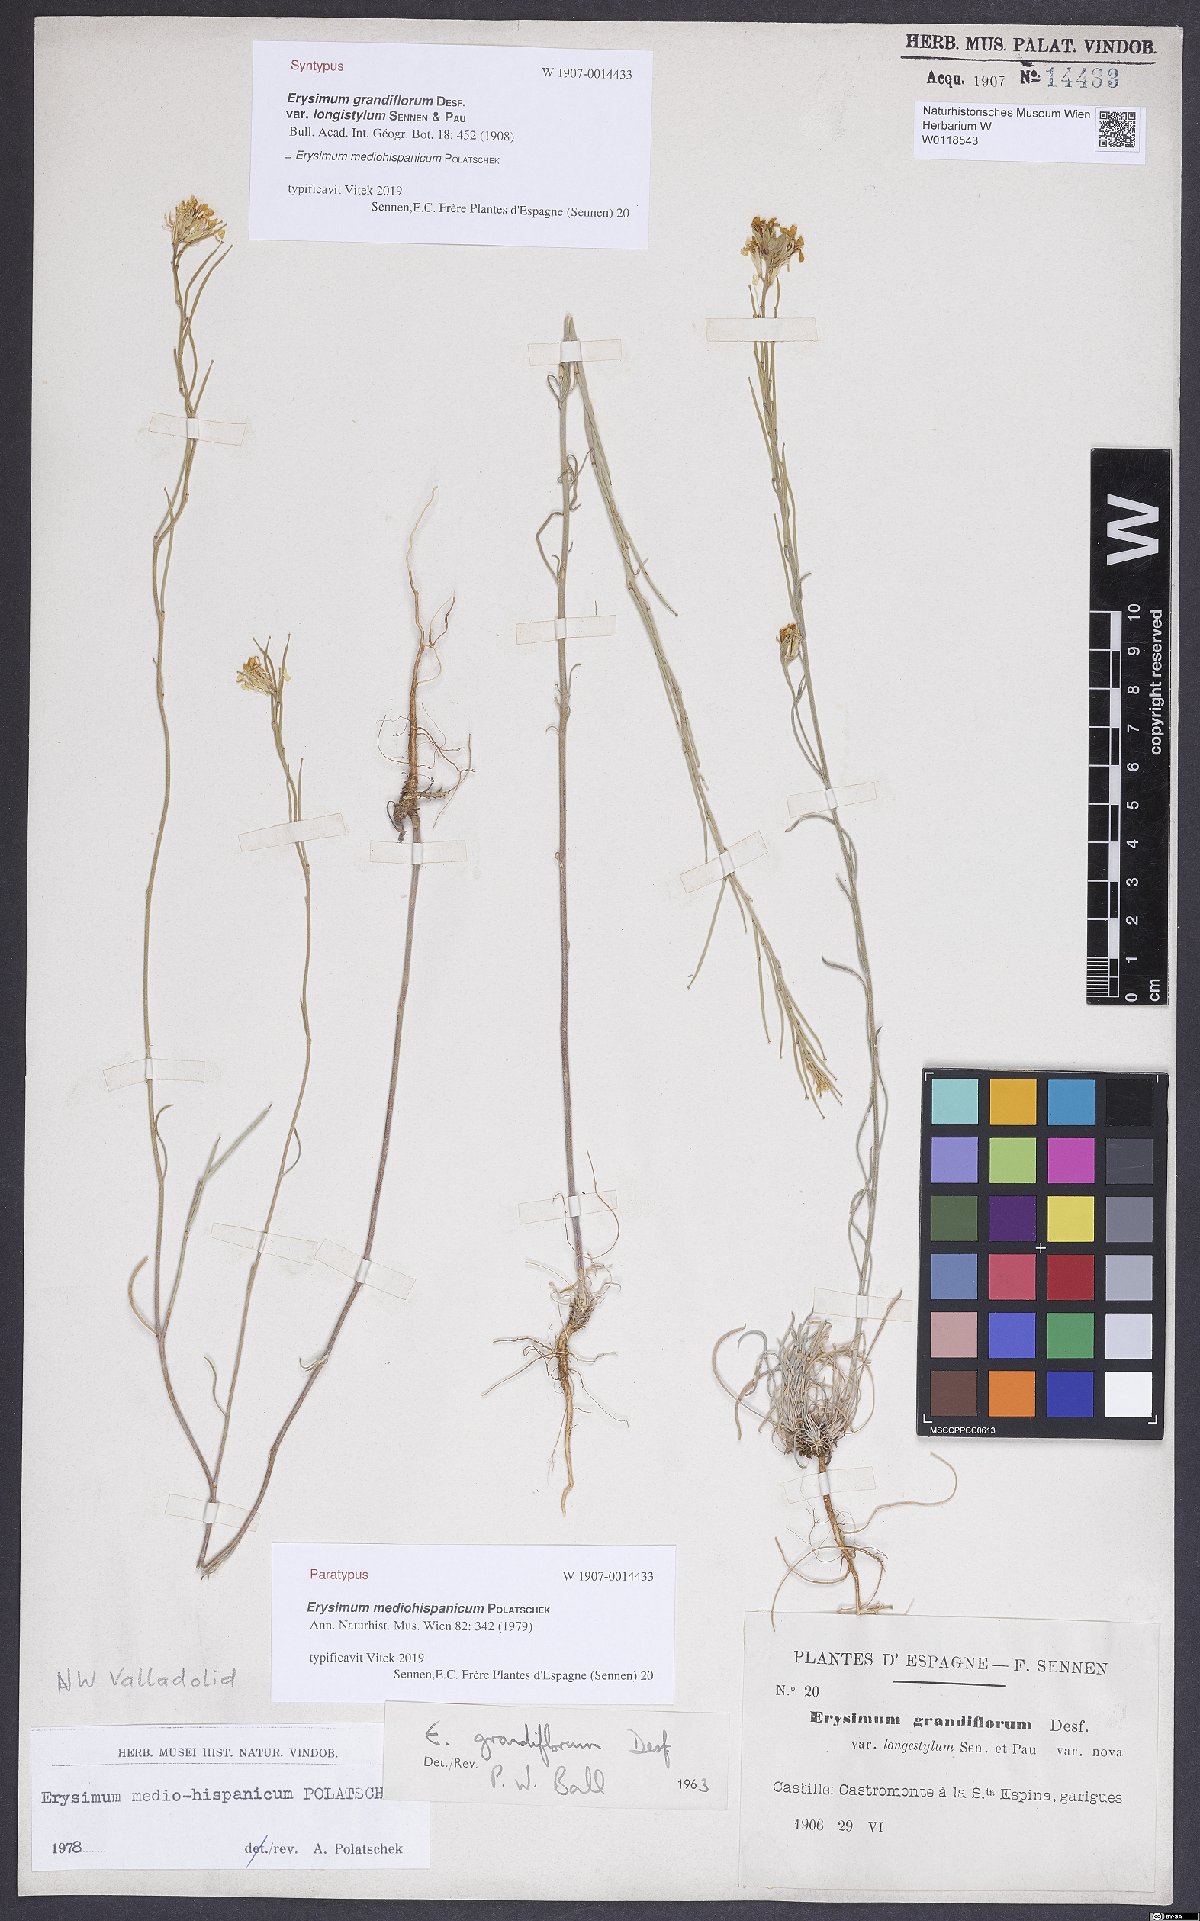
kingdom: Plantae
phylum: Tracheophyta
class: Magnoliopsida
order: Brassicales
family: Brassicaceae
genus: Erysimum
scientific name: Erysimum nevadense
